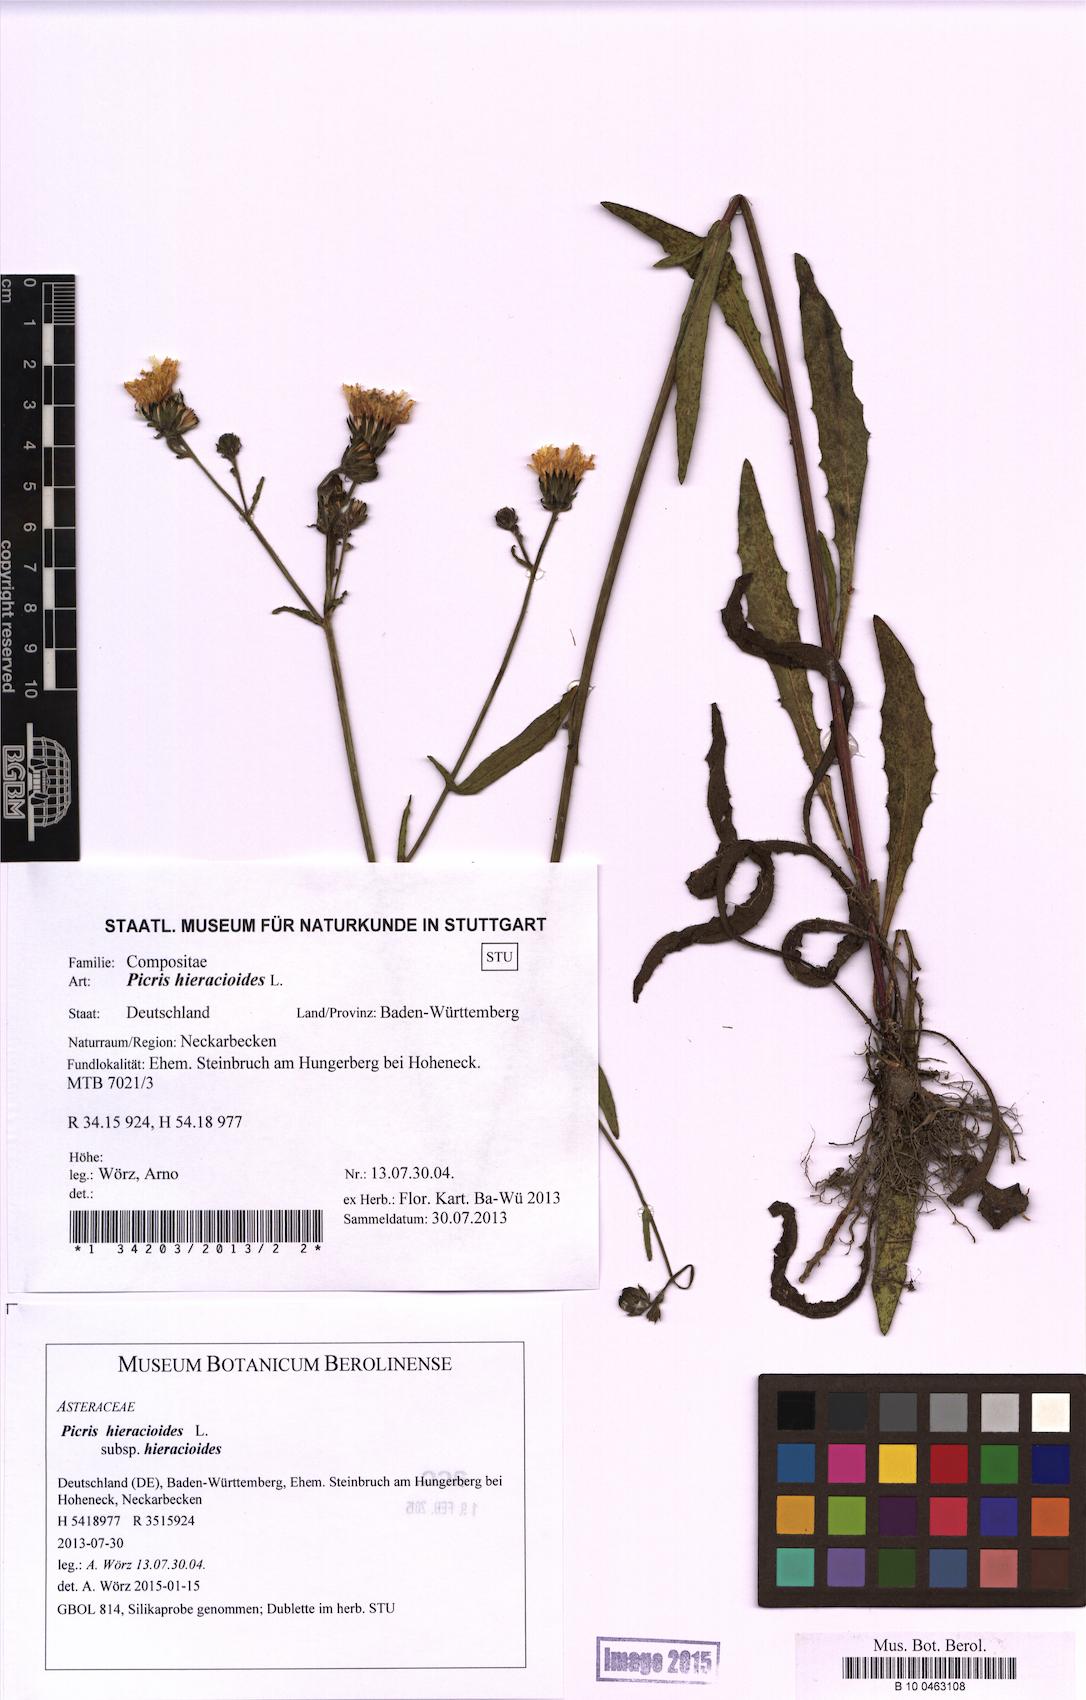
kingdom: Plantae
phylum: Tracheophyta
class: Magnoliopsida
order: Asterales
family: Asteraceae
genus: Picris
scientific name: Picris hieracioides
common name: Hawkweed oxtongue
